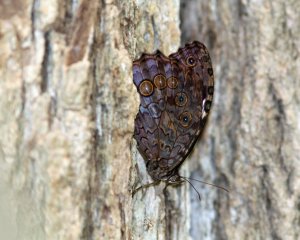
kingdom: Animalia
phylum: Arthropoda
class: Insecta
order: Lepidoptera
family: Nymphalidae
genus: Manataria
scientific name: Manataria hercyna
